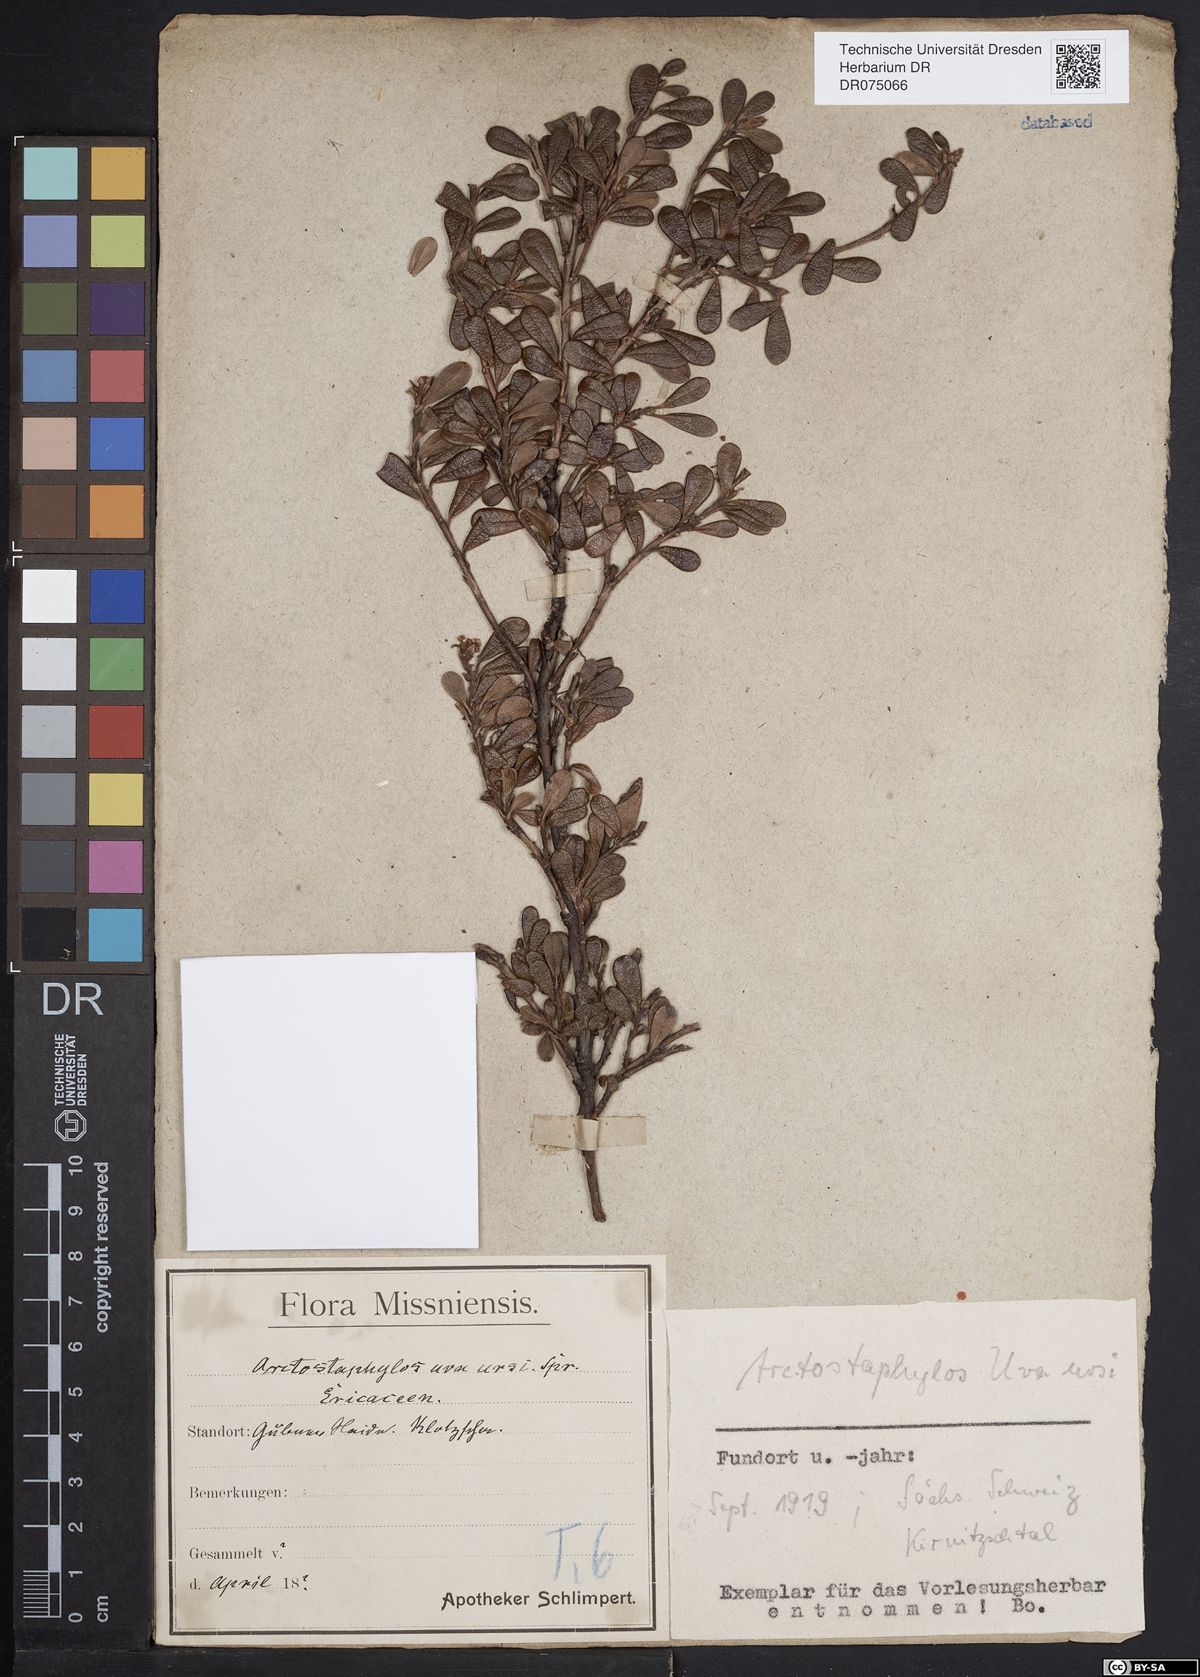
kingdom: Plantae
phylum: Tracheophyta
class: Magnoliopsida
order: Ericales
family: Ericaceae
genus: Arctostaphylos
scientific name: Arctostaphylos uva-ursi
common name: Bearberry
